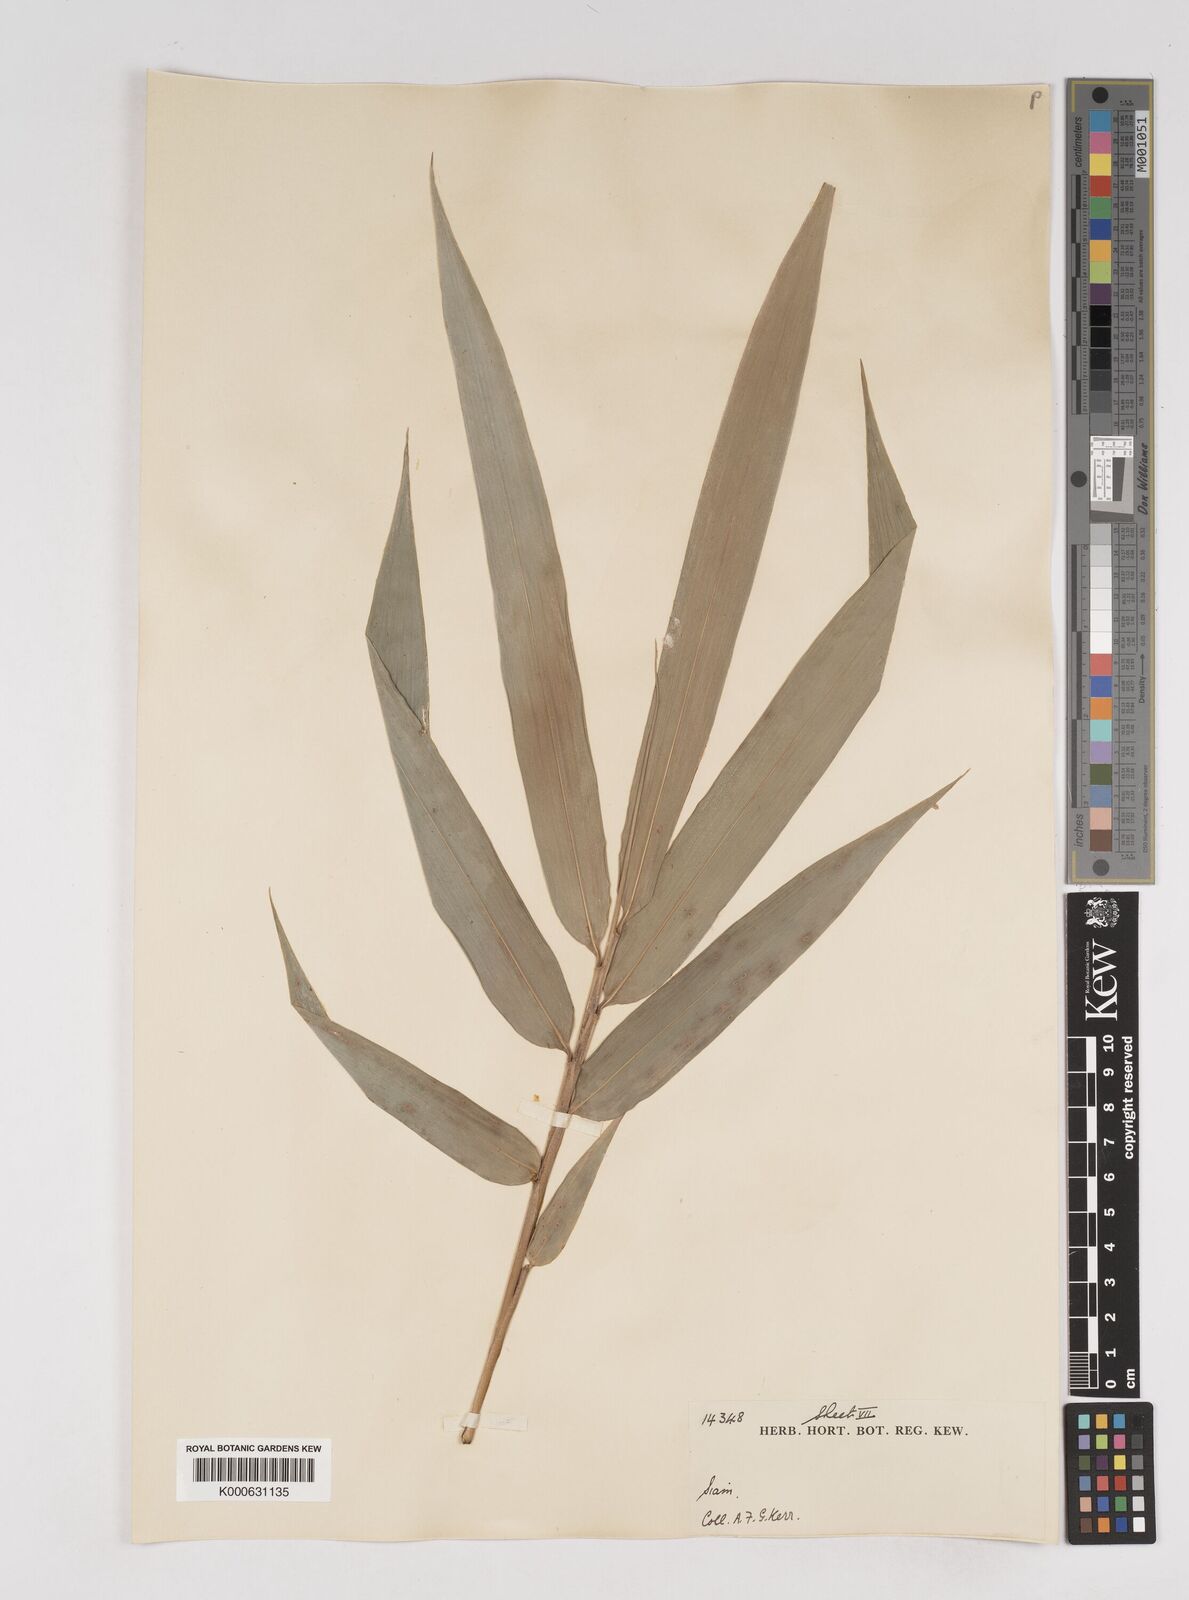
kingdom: Plantae
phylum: Tracheophyta
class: Liliopsida
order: Poales
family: Poaceae
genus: Gigantochloa
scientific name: Gigantochloa
